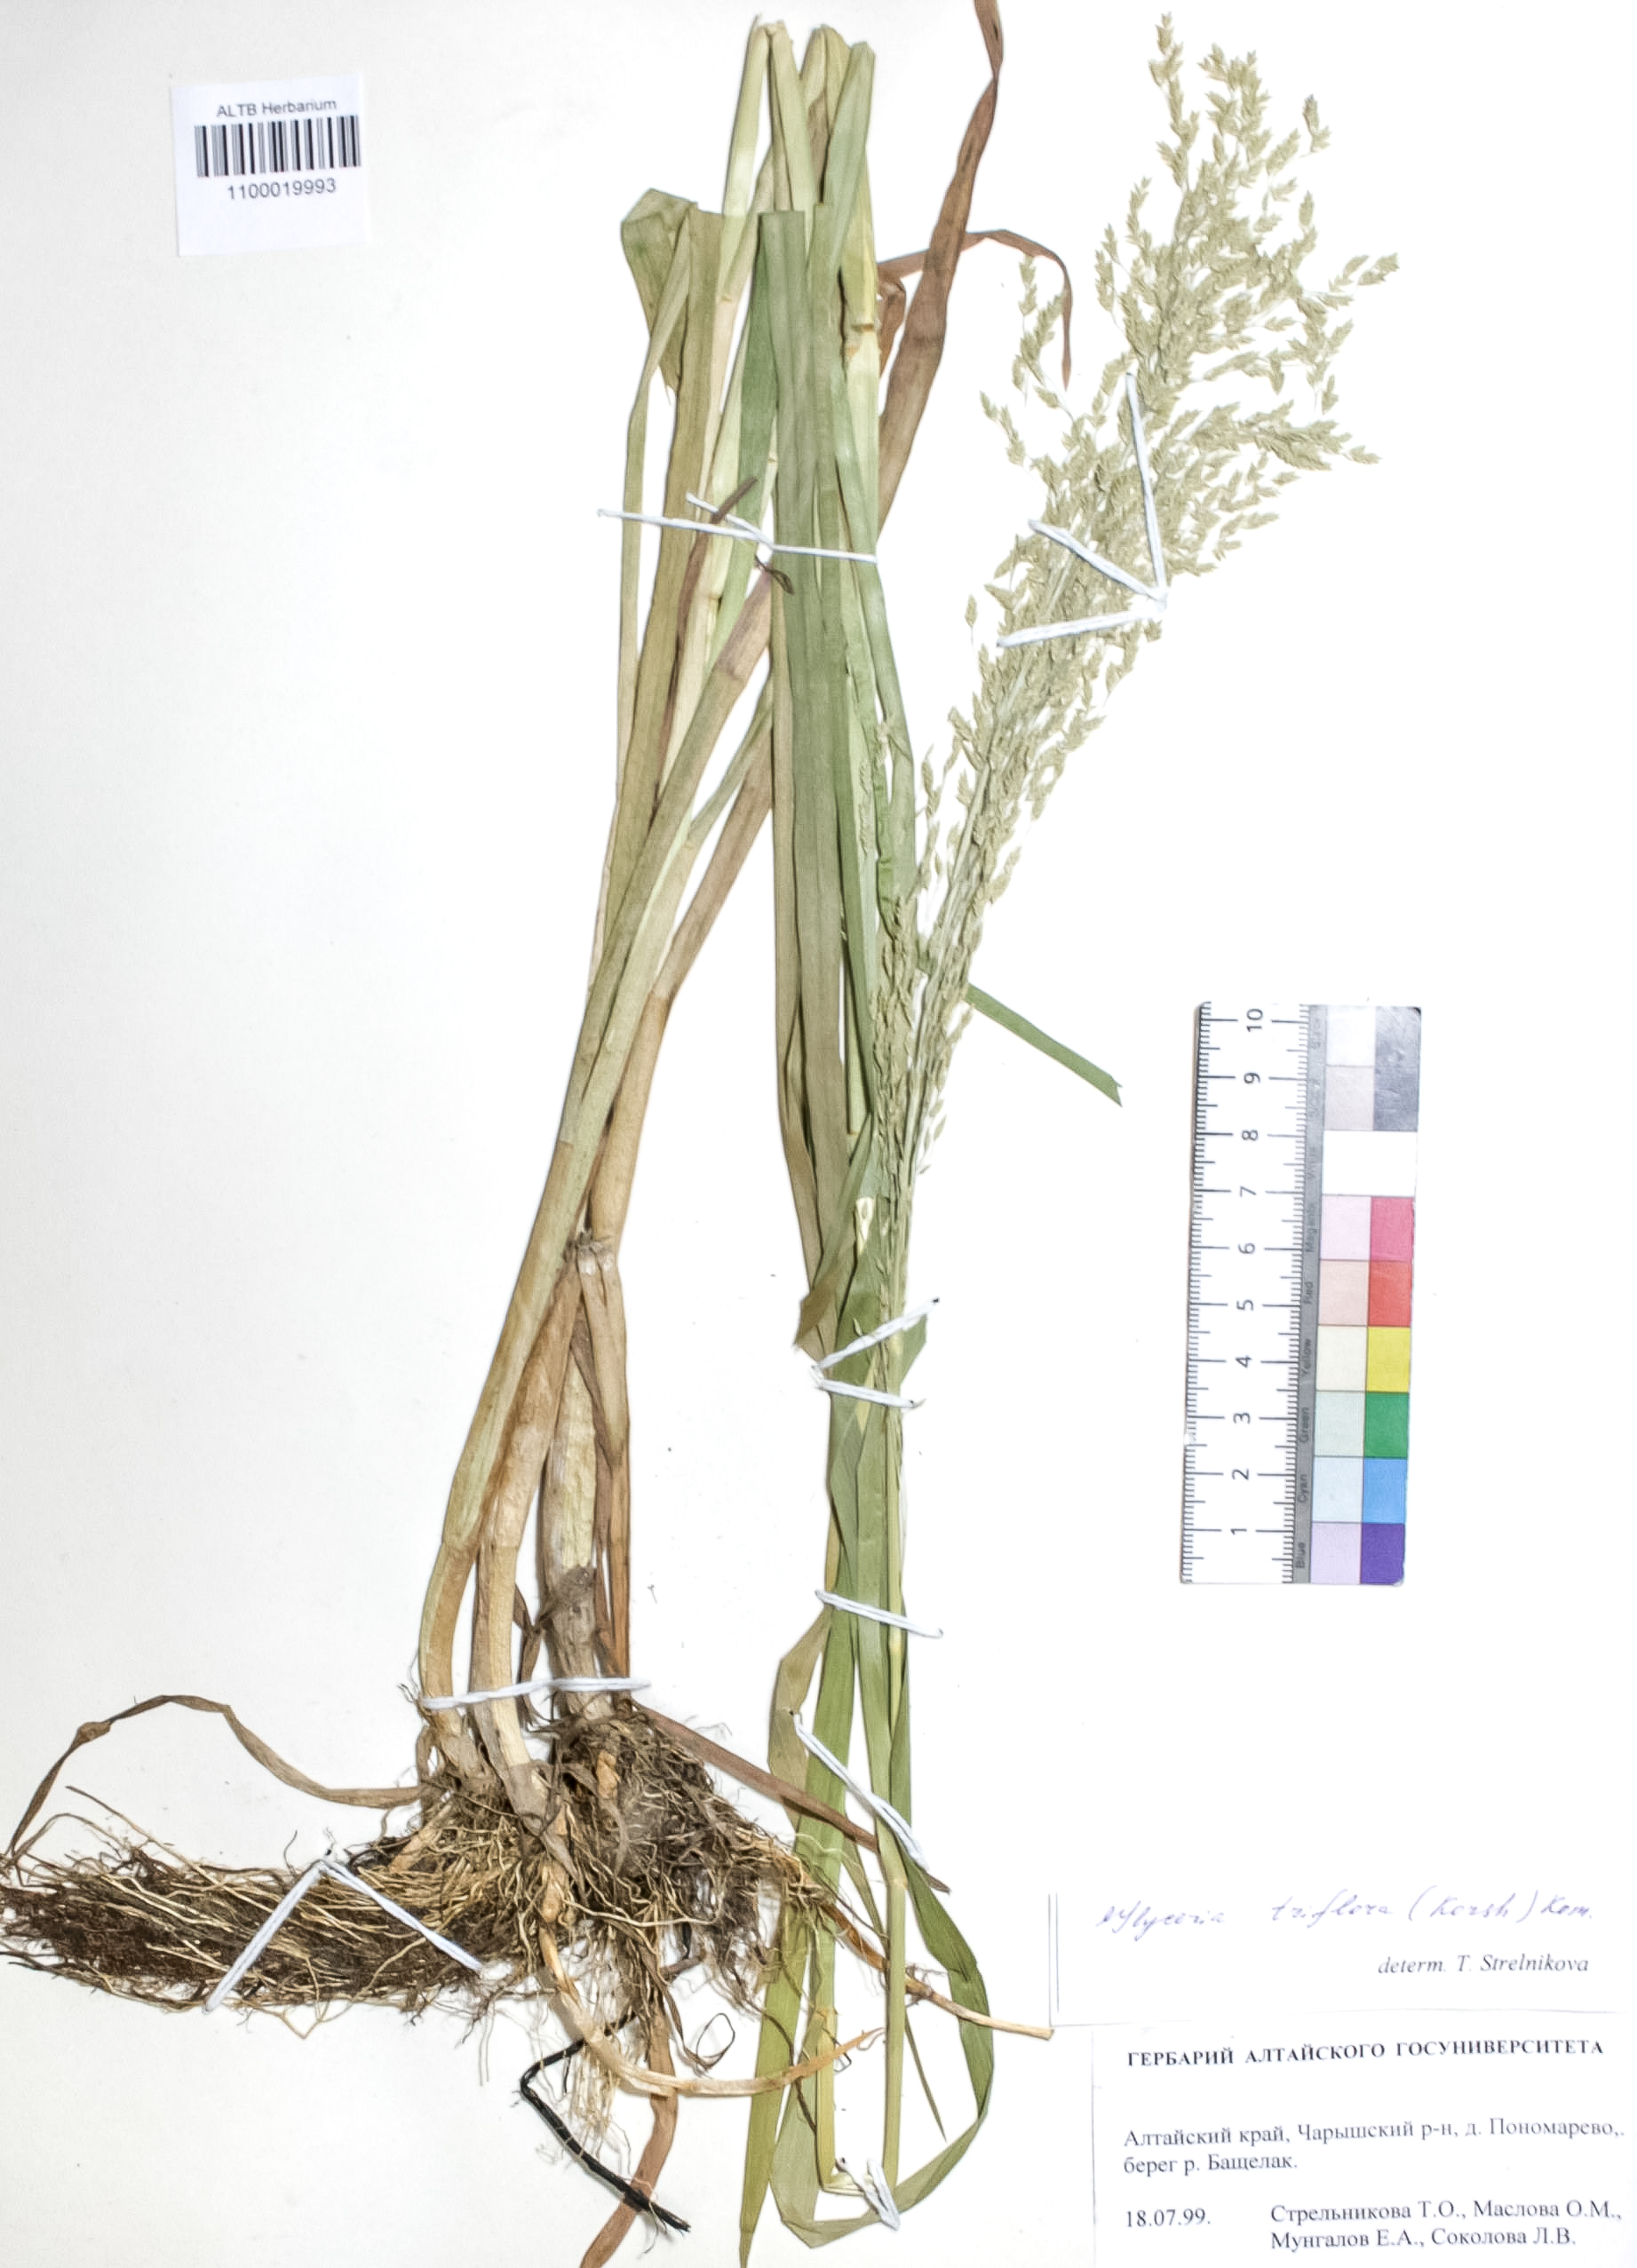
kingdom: Plantae
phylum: Tracheophyta
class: Liliopsida
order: Poales
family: Poaceae
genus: Glyceria
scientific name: Glyceria lithuanica
